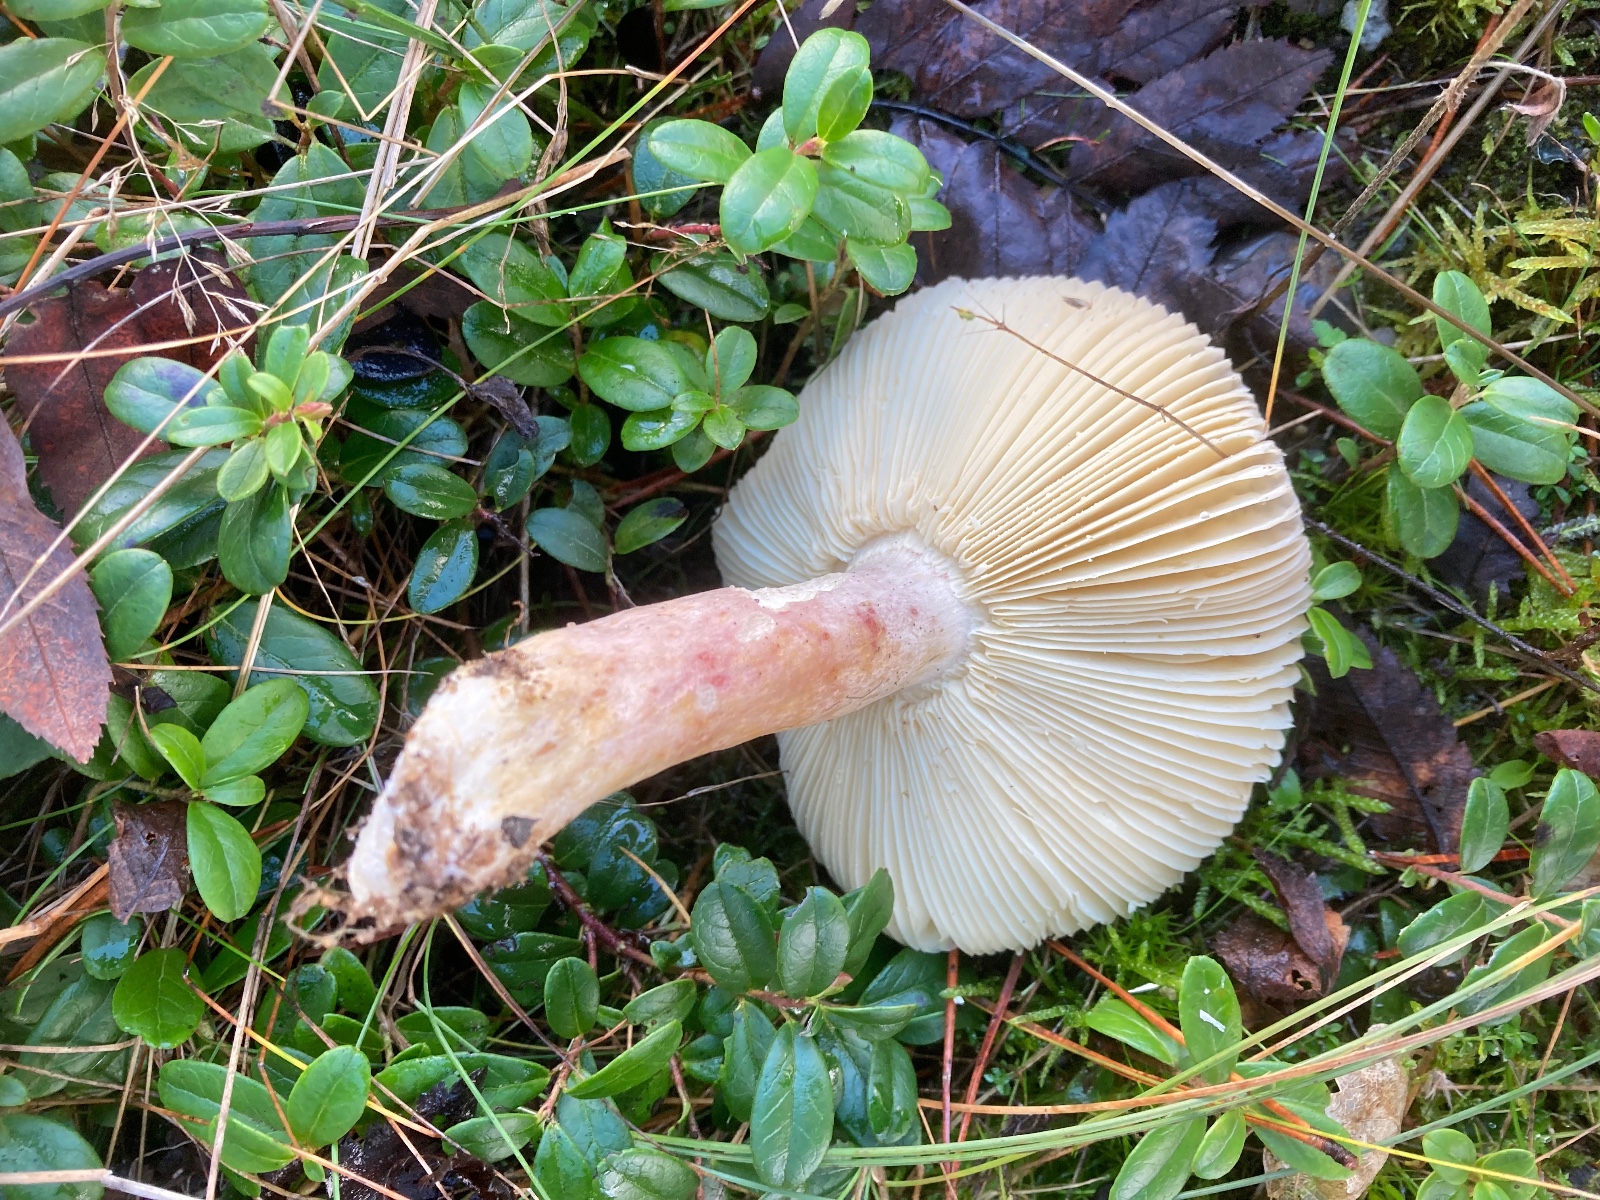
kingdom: Fungi
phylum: Basidiomycota
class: Agaricomycetes
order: Russulales
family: Russulaceae
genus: Russula
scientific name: Russula
